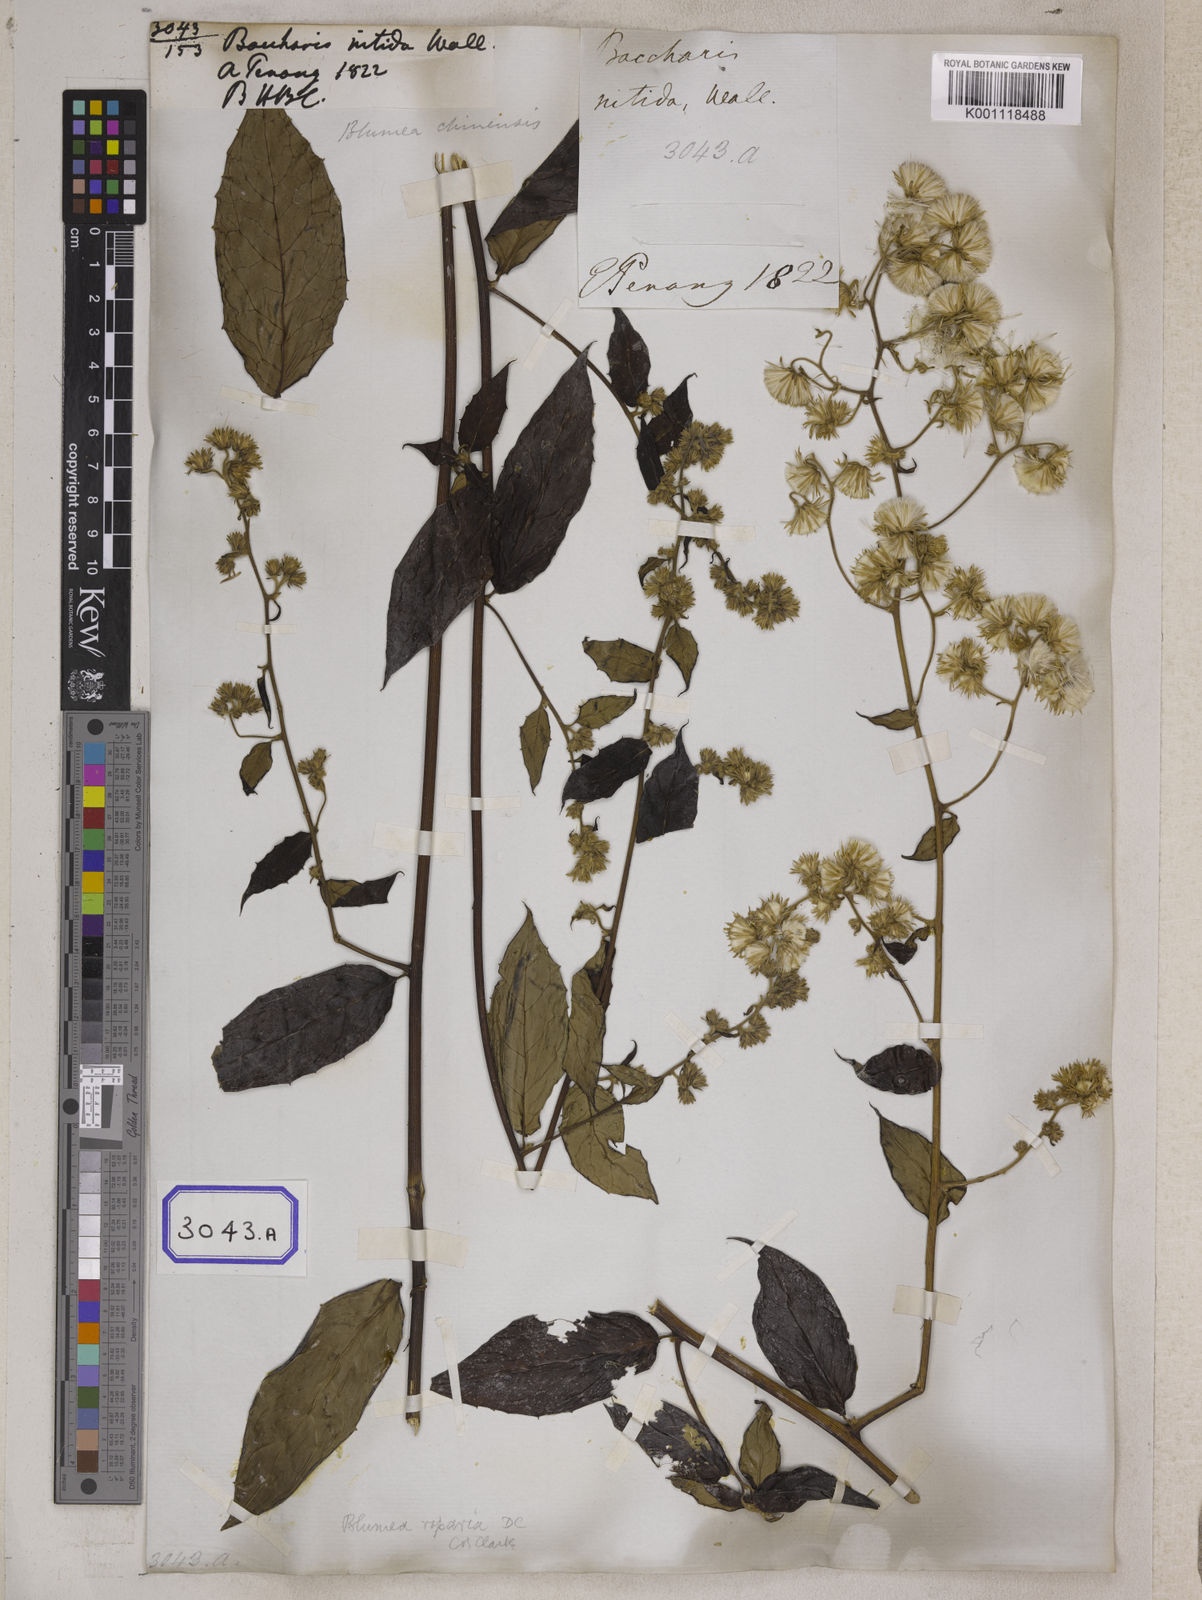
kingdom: Plantae
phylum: Tracheophyta
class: Magnoliopsida
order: Asterales
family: Asteraceae
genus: Blumea
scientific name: Blumea riparia
